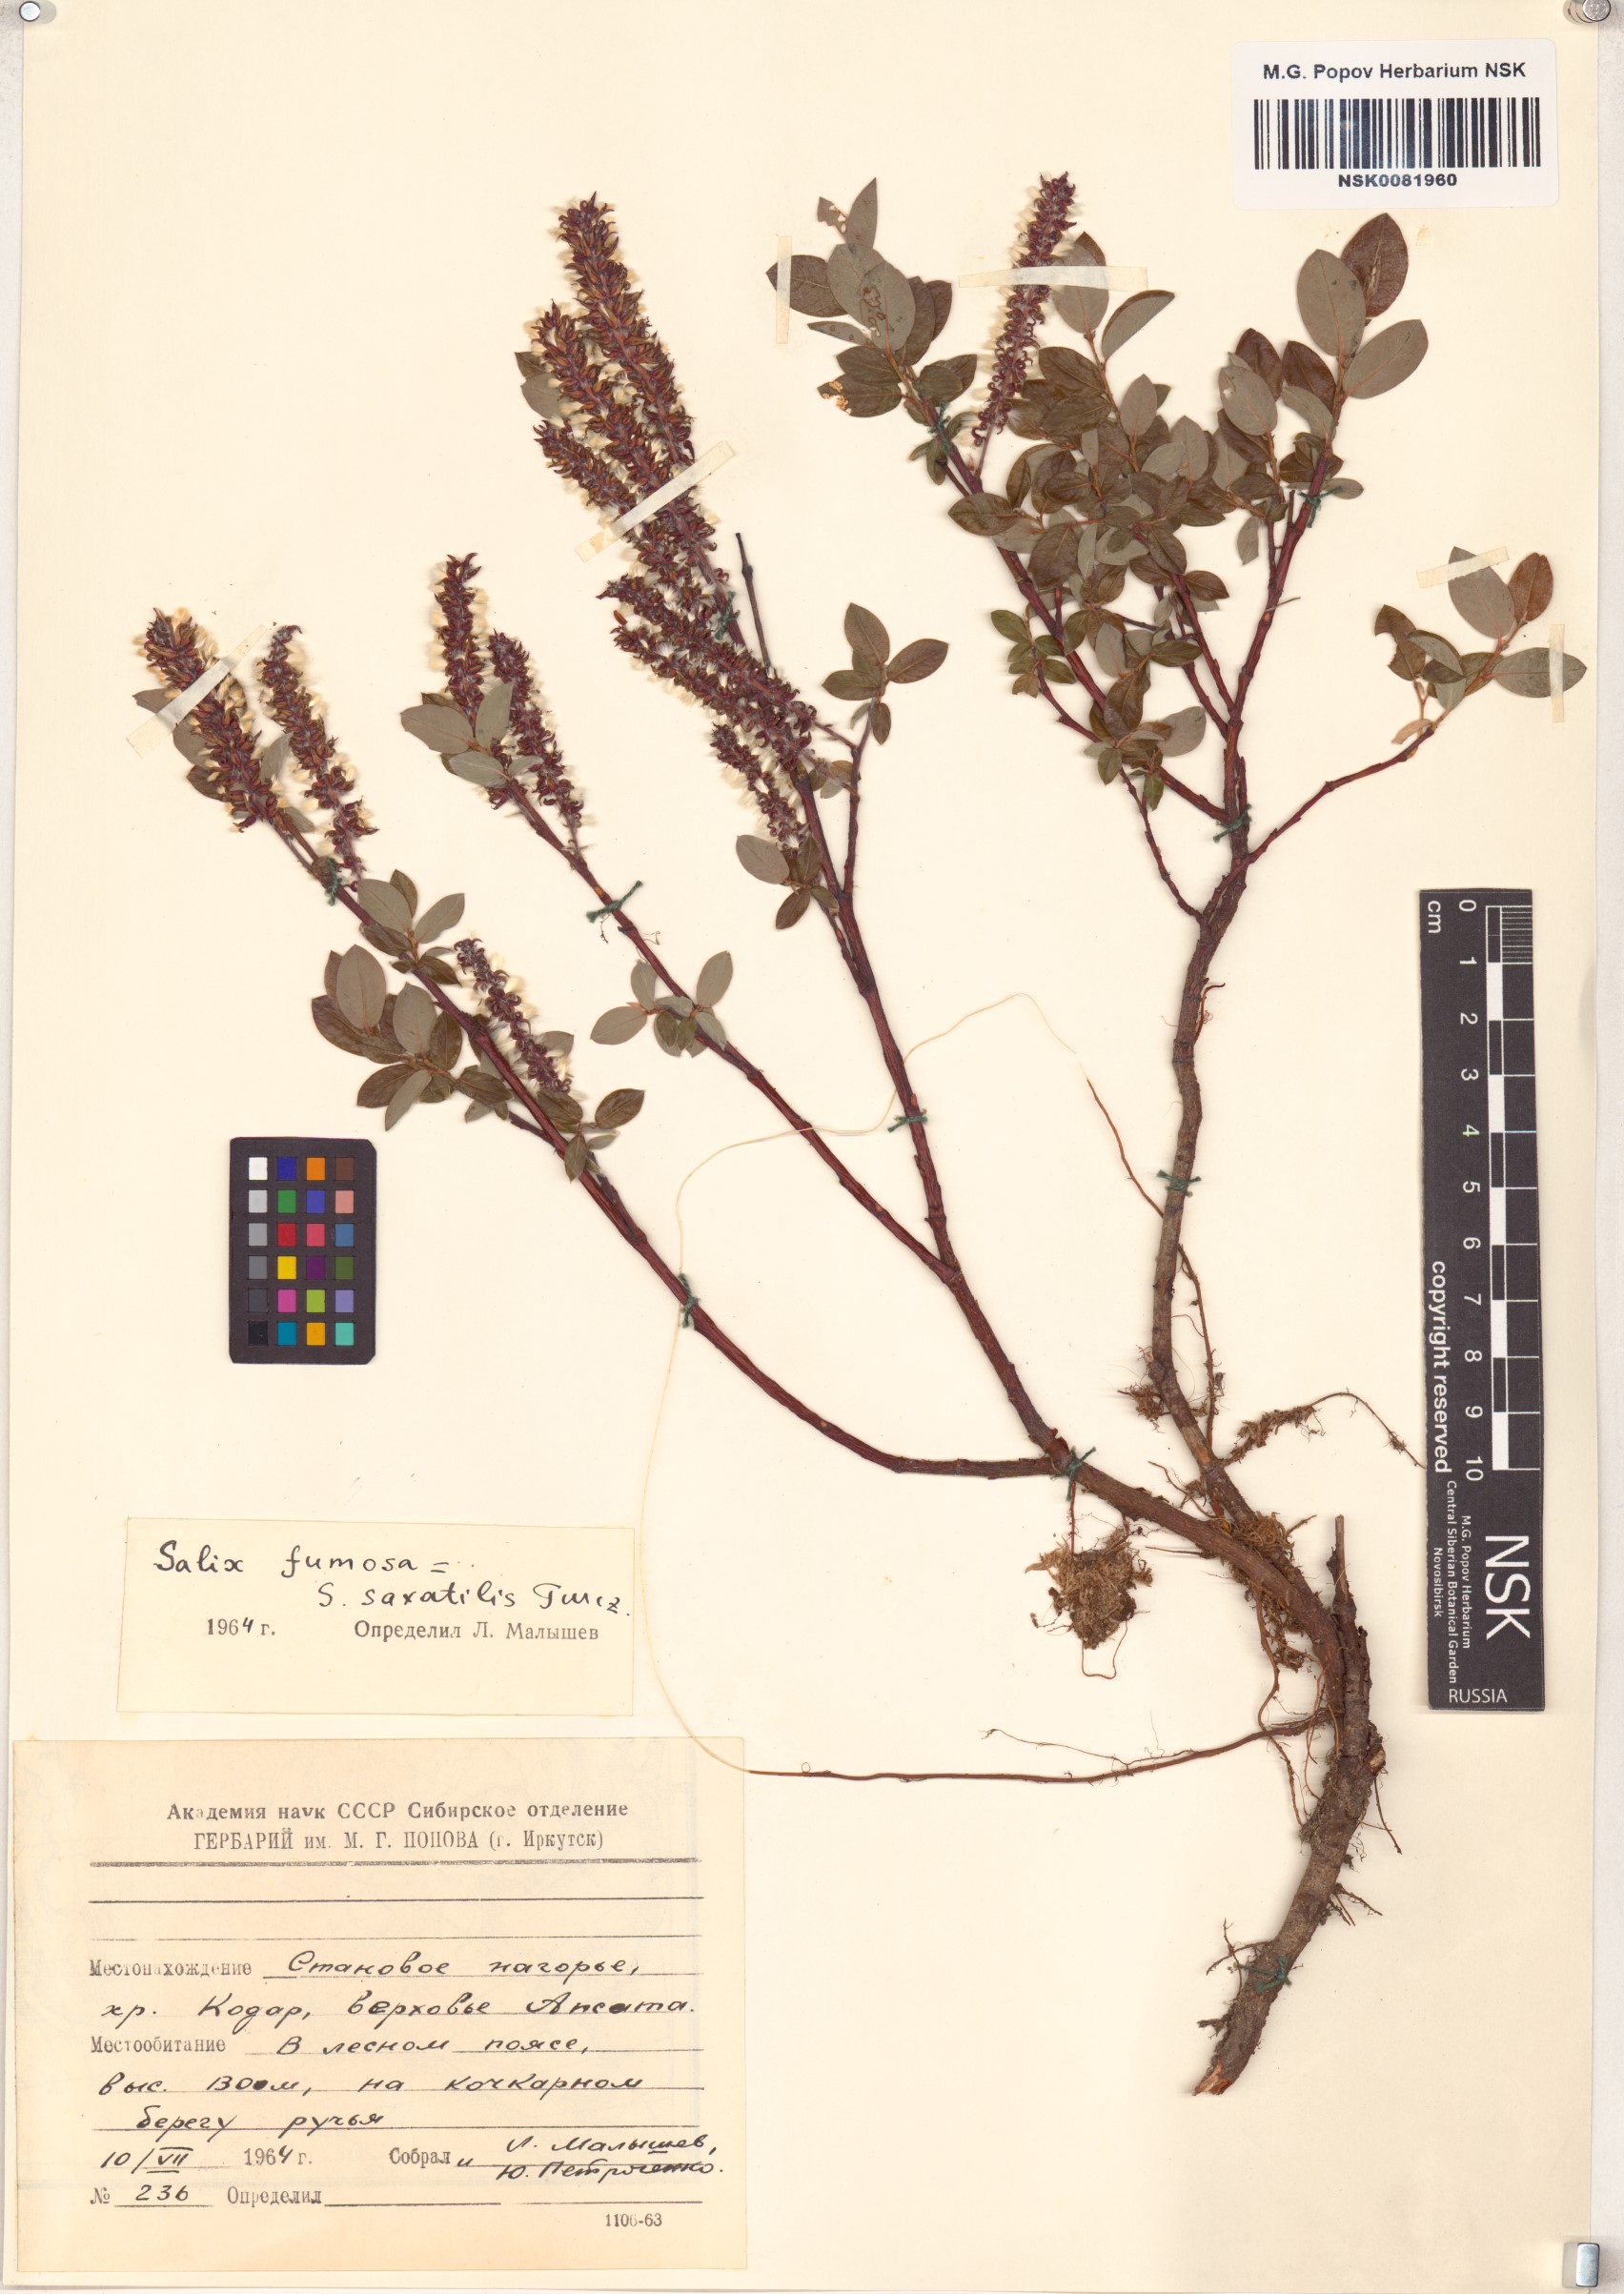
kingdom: Plantae
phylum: Tracheophyta
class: Magnoliopsida
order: Malpighiales
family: Salicaceae
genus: Salix
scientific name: Salix saxatilis
